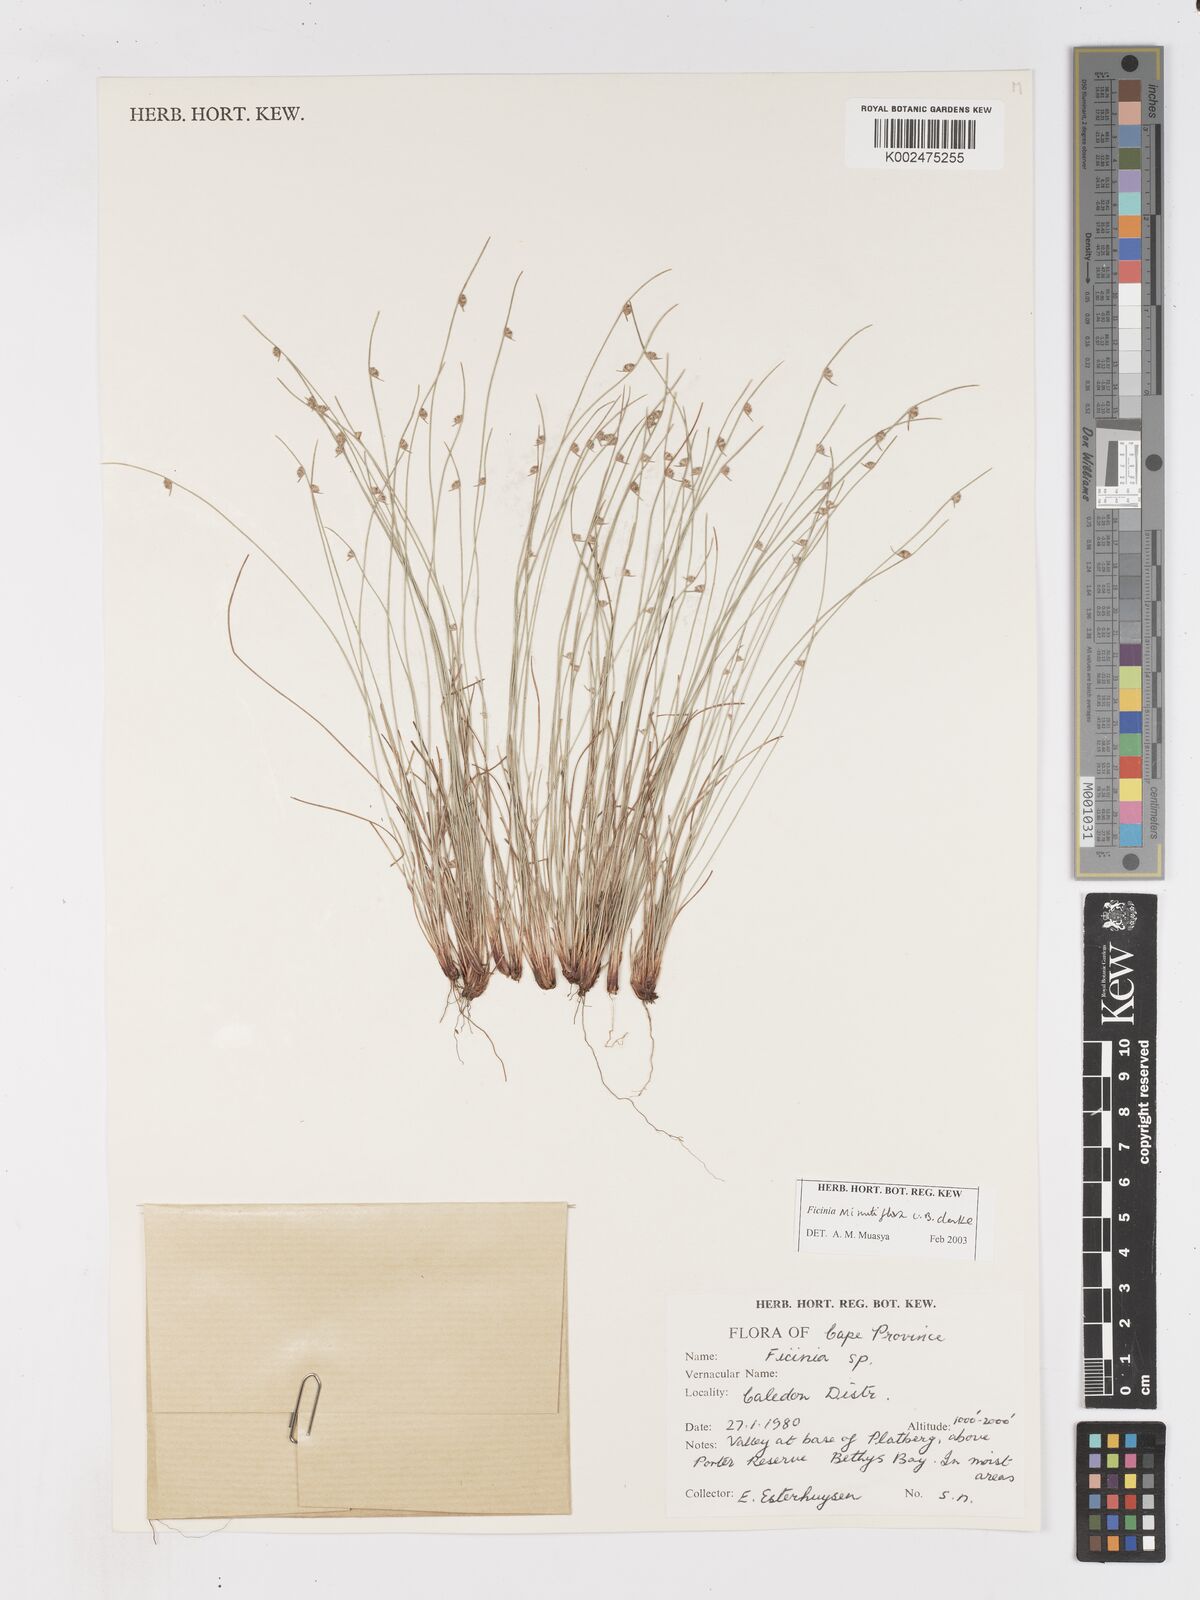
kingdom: Plantae
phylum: Tracheophyta
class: Liliopsida
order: Poales
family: Cyperaceae
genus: Ficinia
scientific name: Ficinia minutiflora
